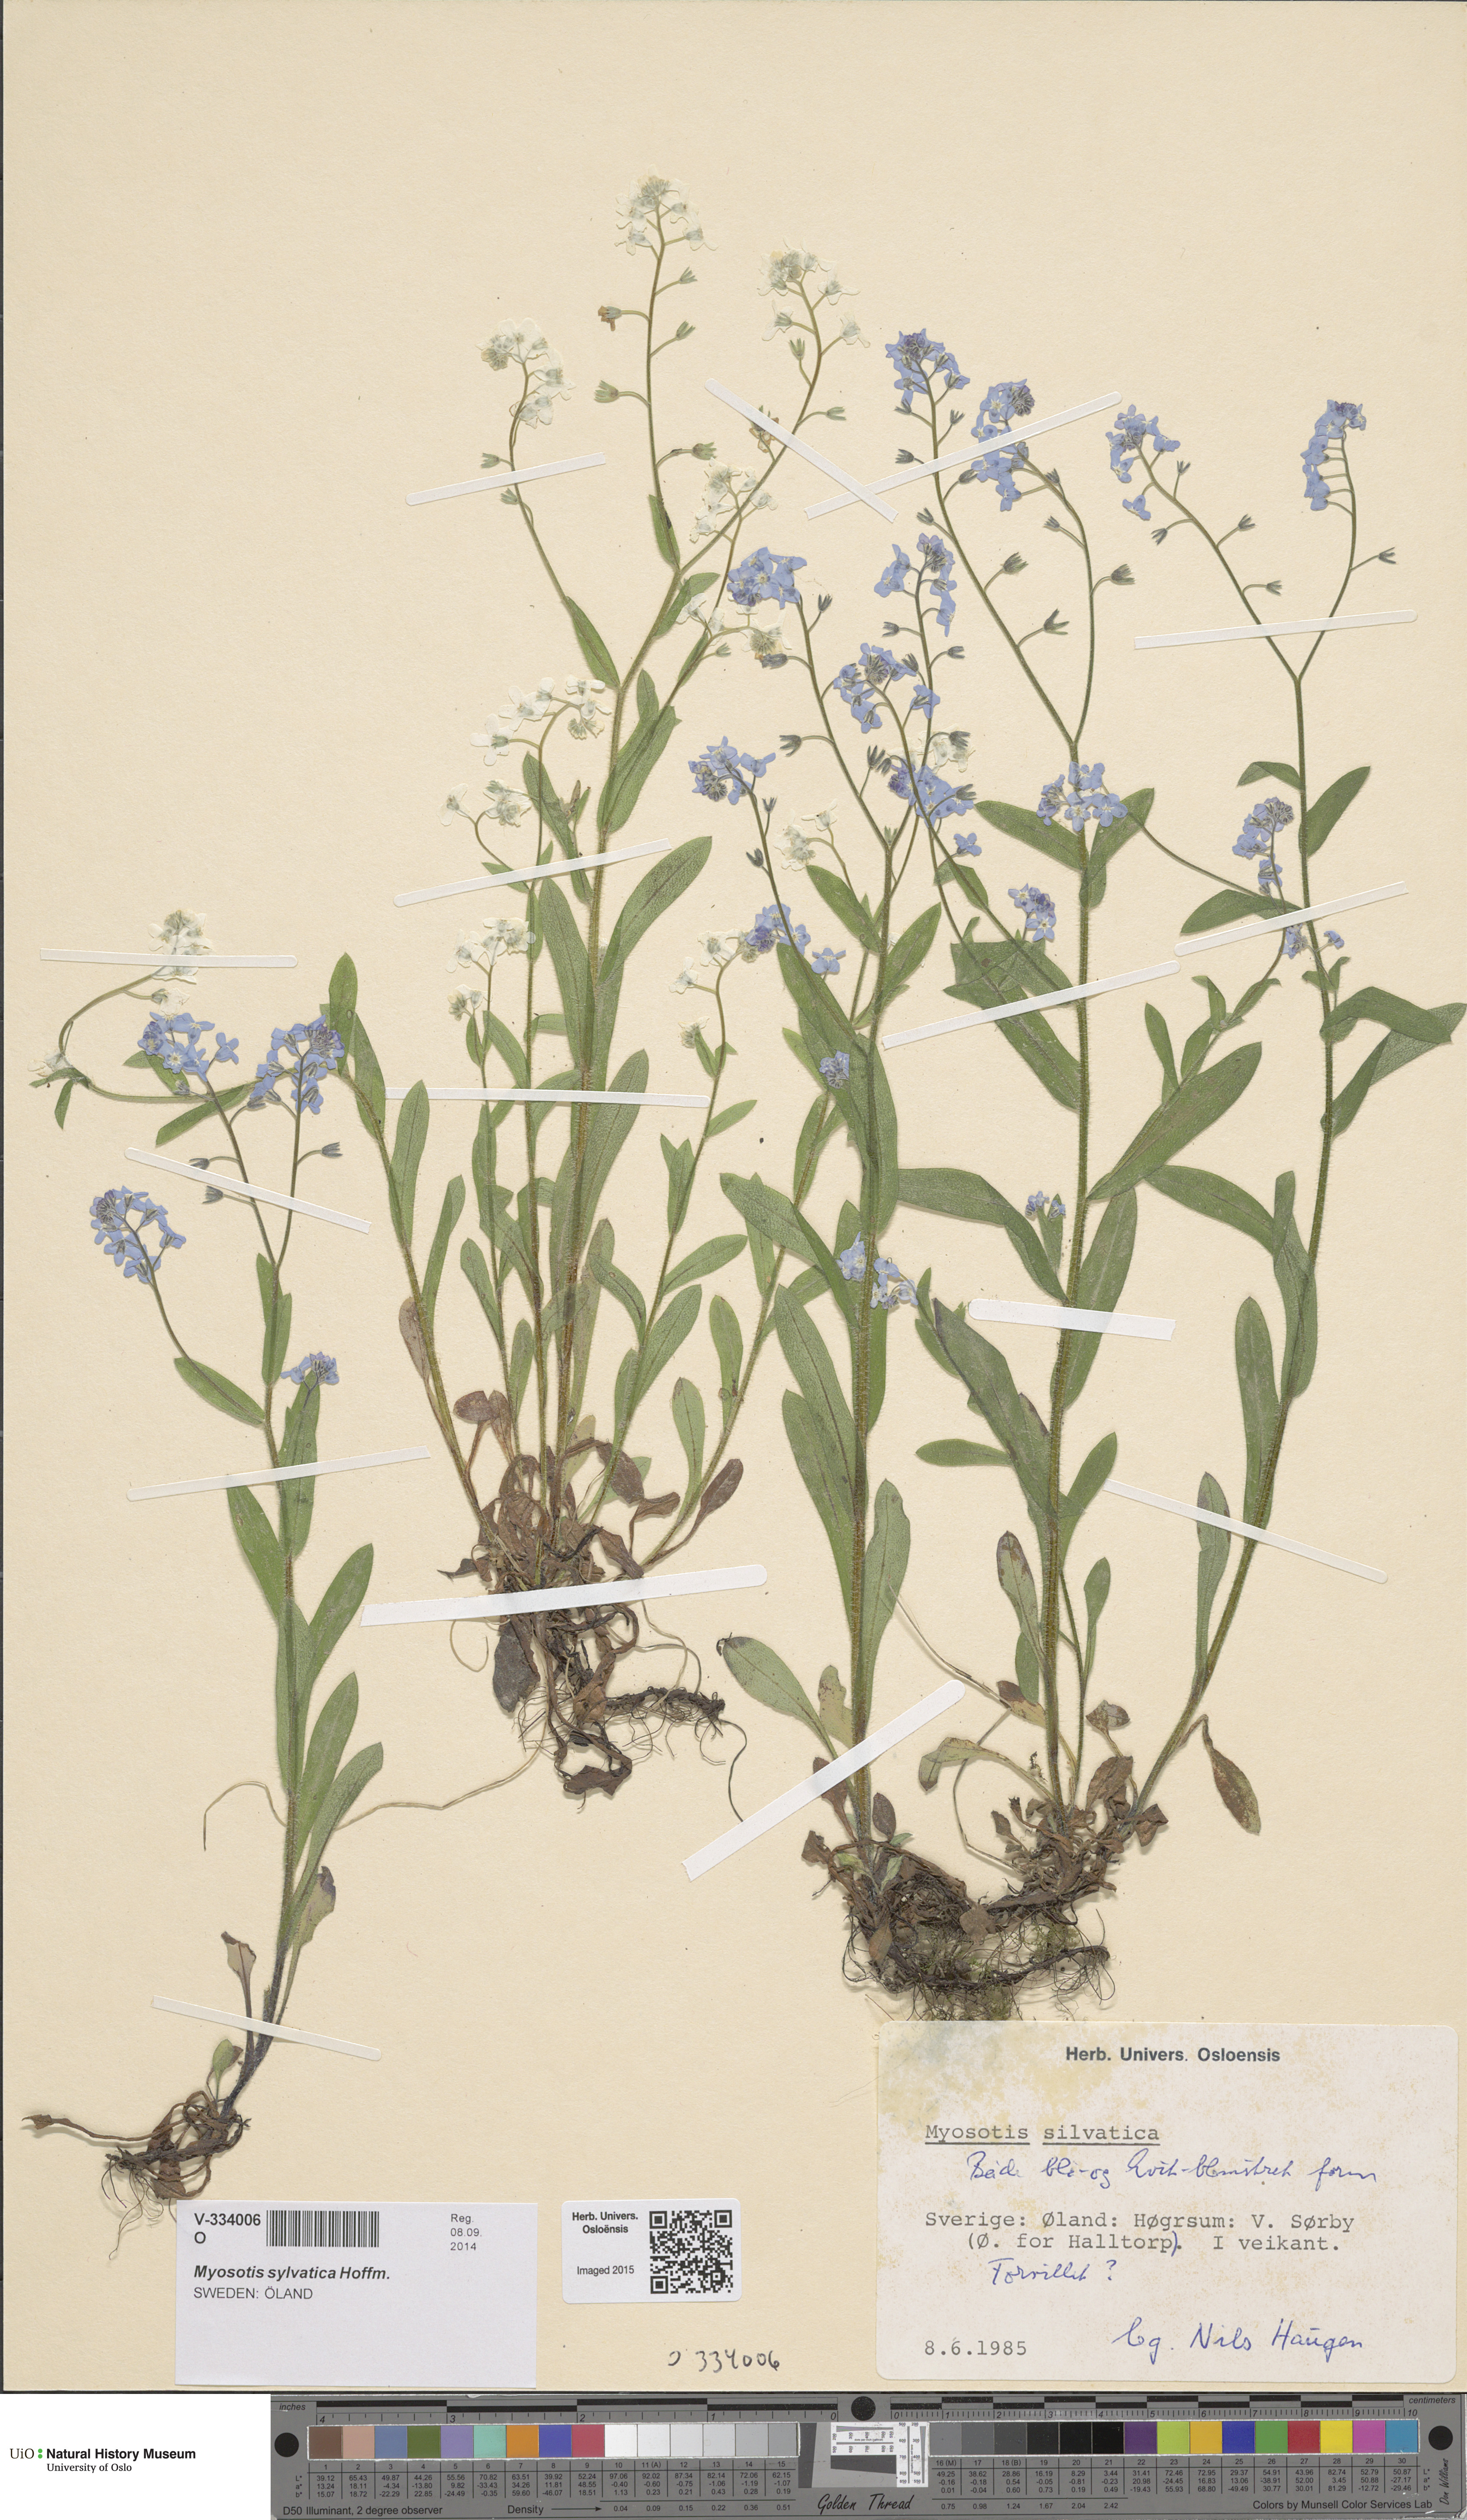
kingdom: Plantae
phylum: Tracheophyta
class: Magnoliopsida
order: Boraginales
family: Boraginaceae
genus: Myosotis
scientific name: Myosotis sylvatica
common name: Wood forget-me-not
